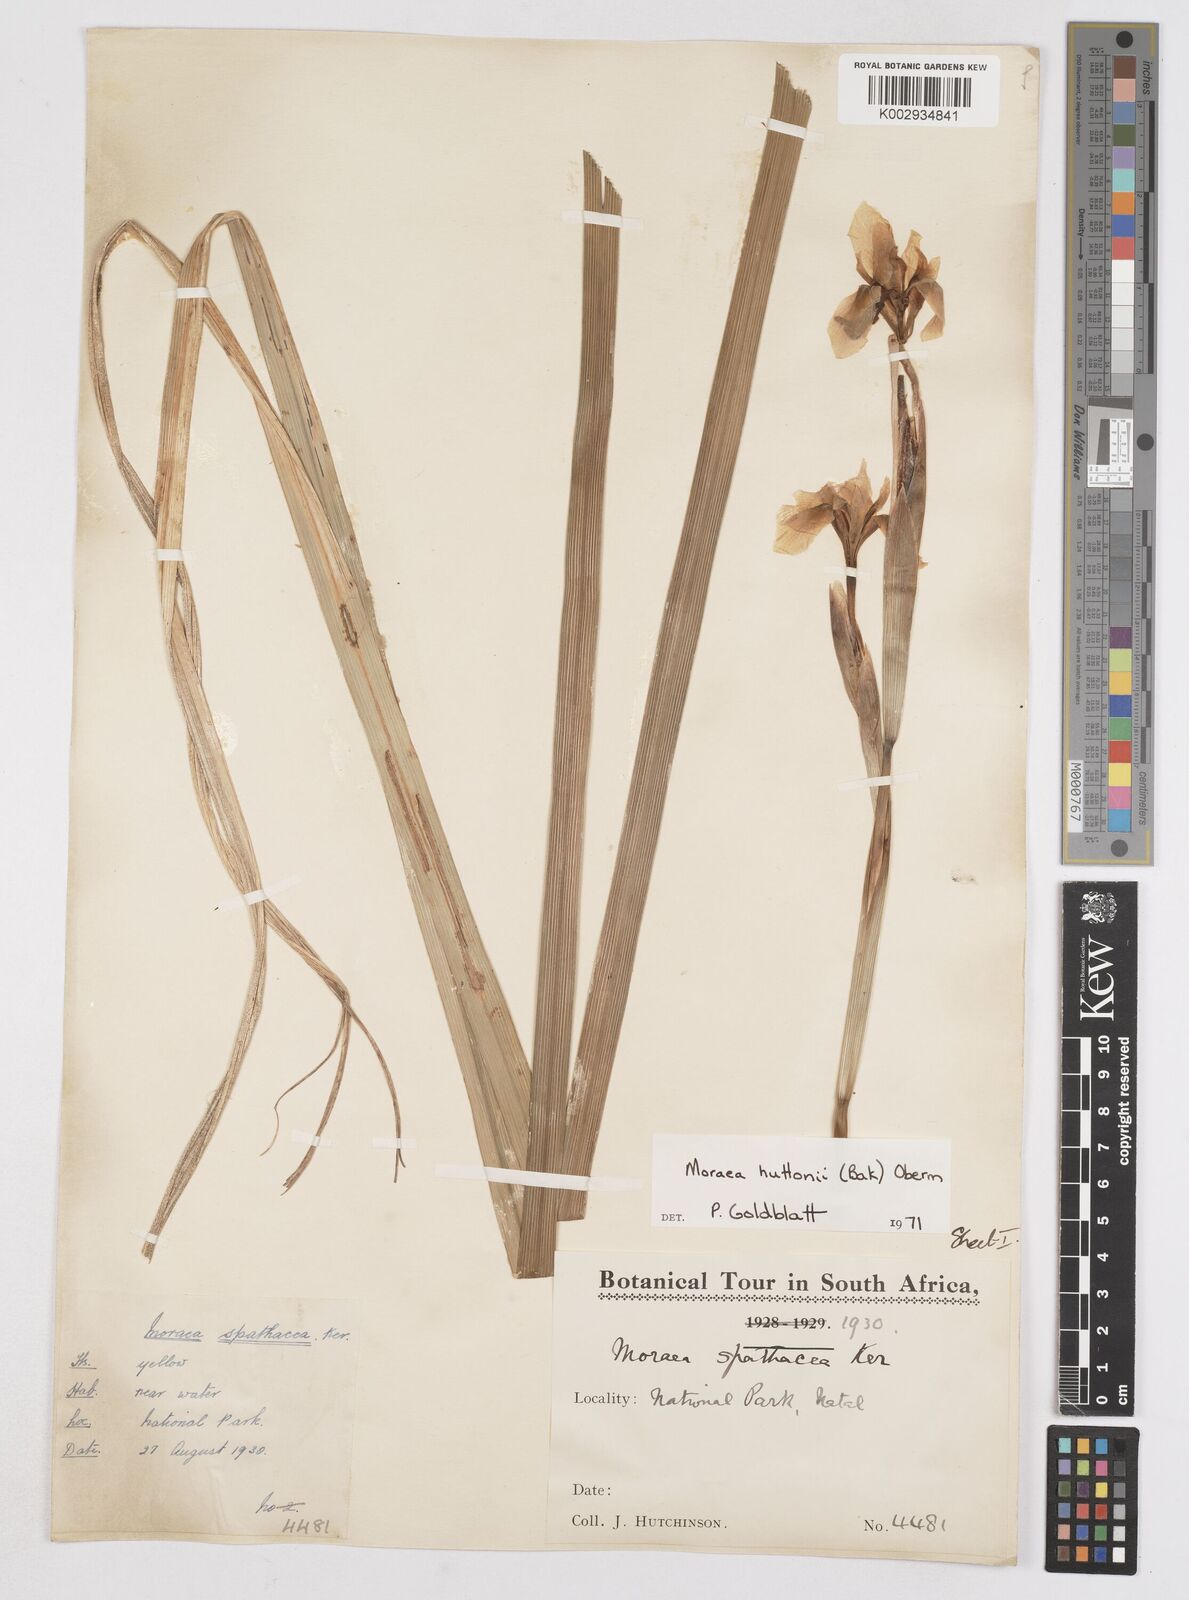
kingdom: Plantae
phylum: Tracheophyta
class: Liliopsida
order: Asparagales
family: Iridaceae
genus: Moraea
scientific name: Moraea huttonii
